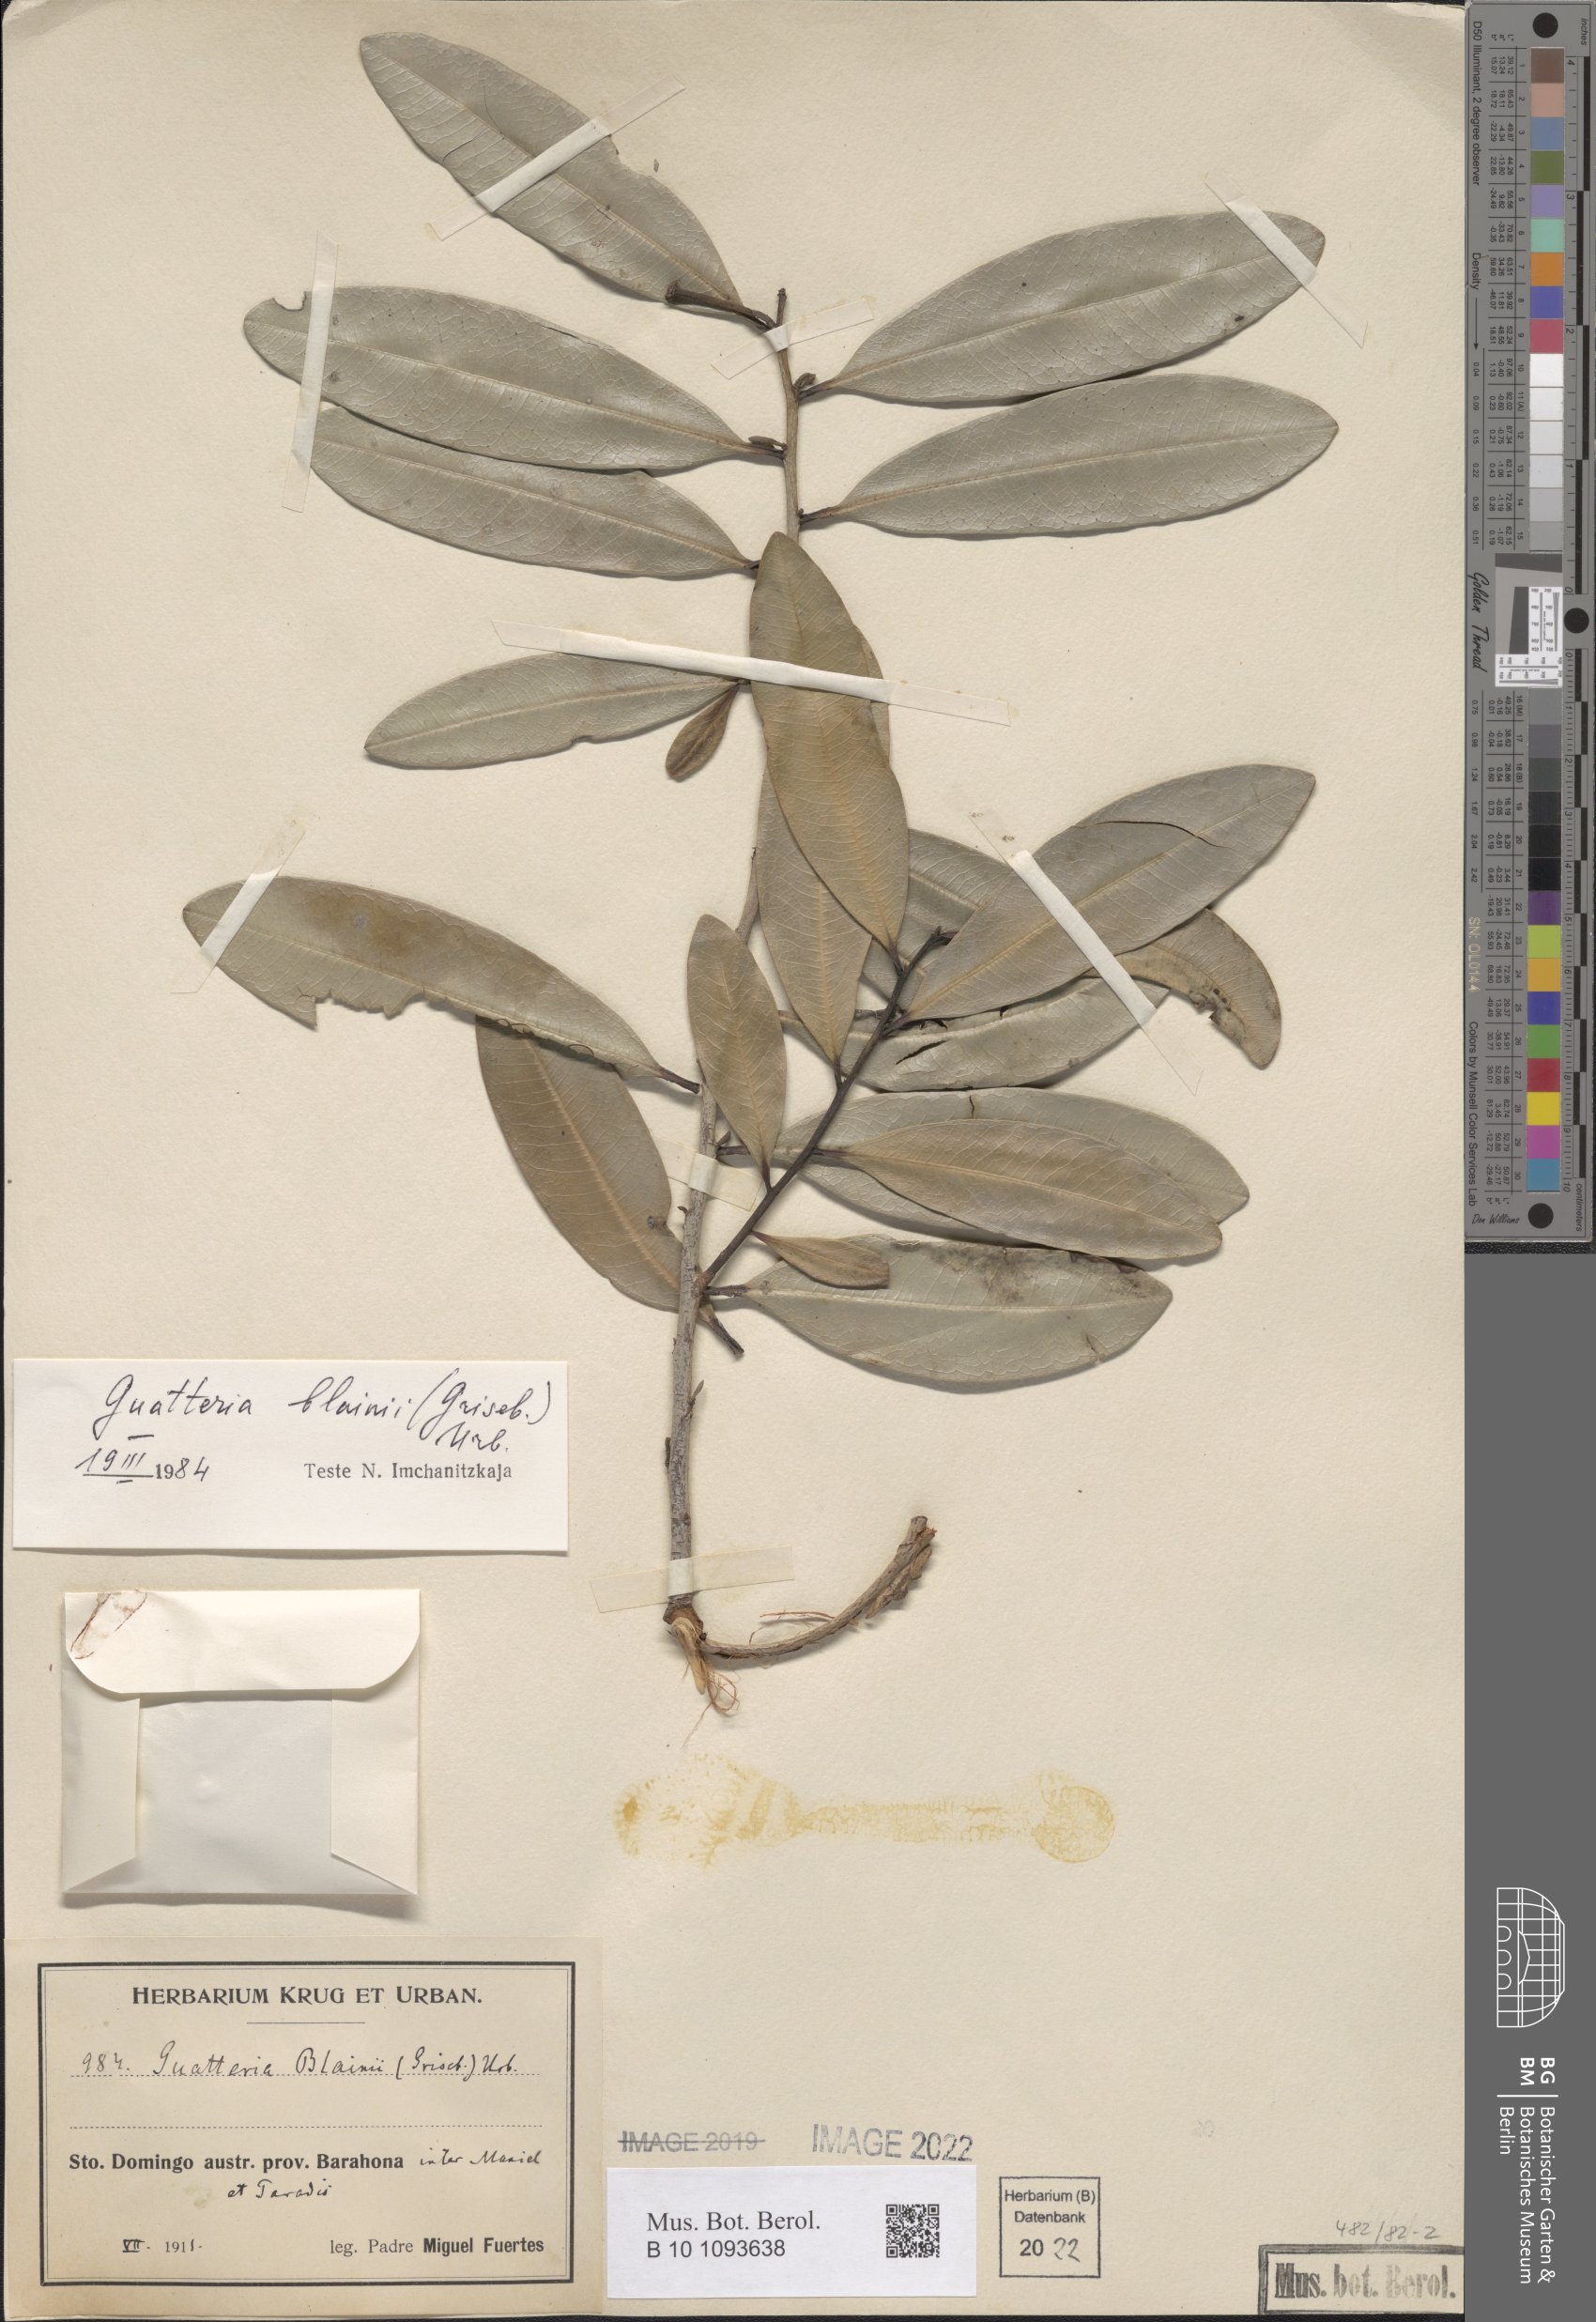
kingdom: Plantae
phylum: Tracheophyta
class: Magnoliopsida
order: Magnoliales
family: Annonaceae
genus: Guatteria
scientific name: Guatteria blainii
